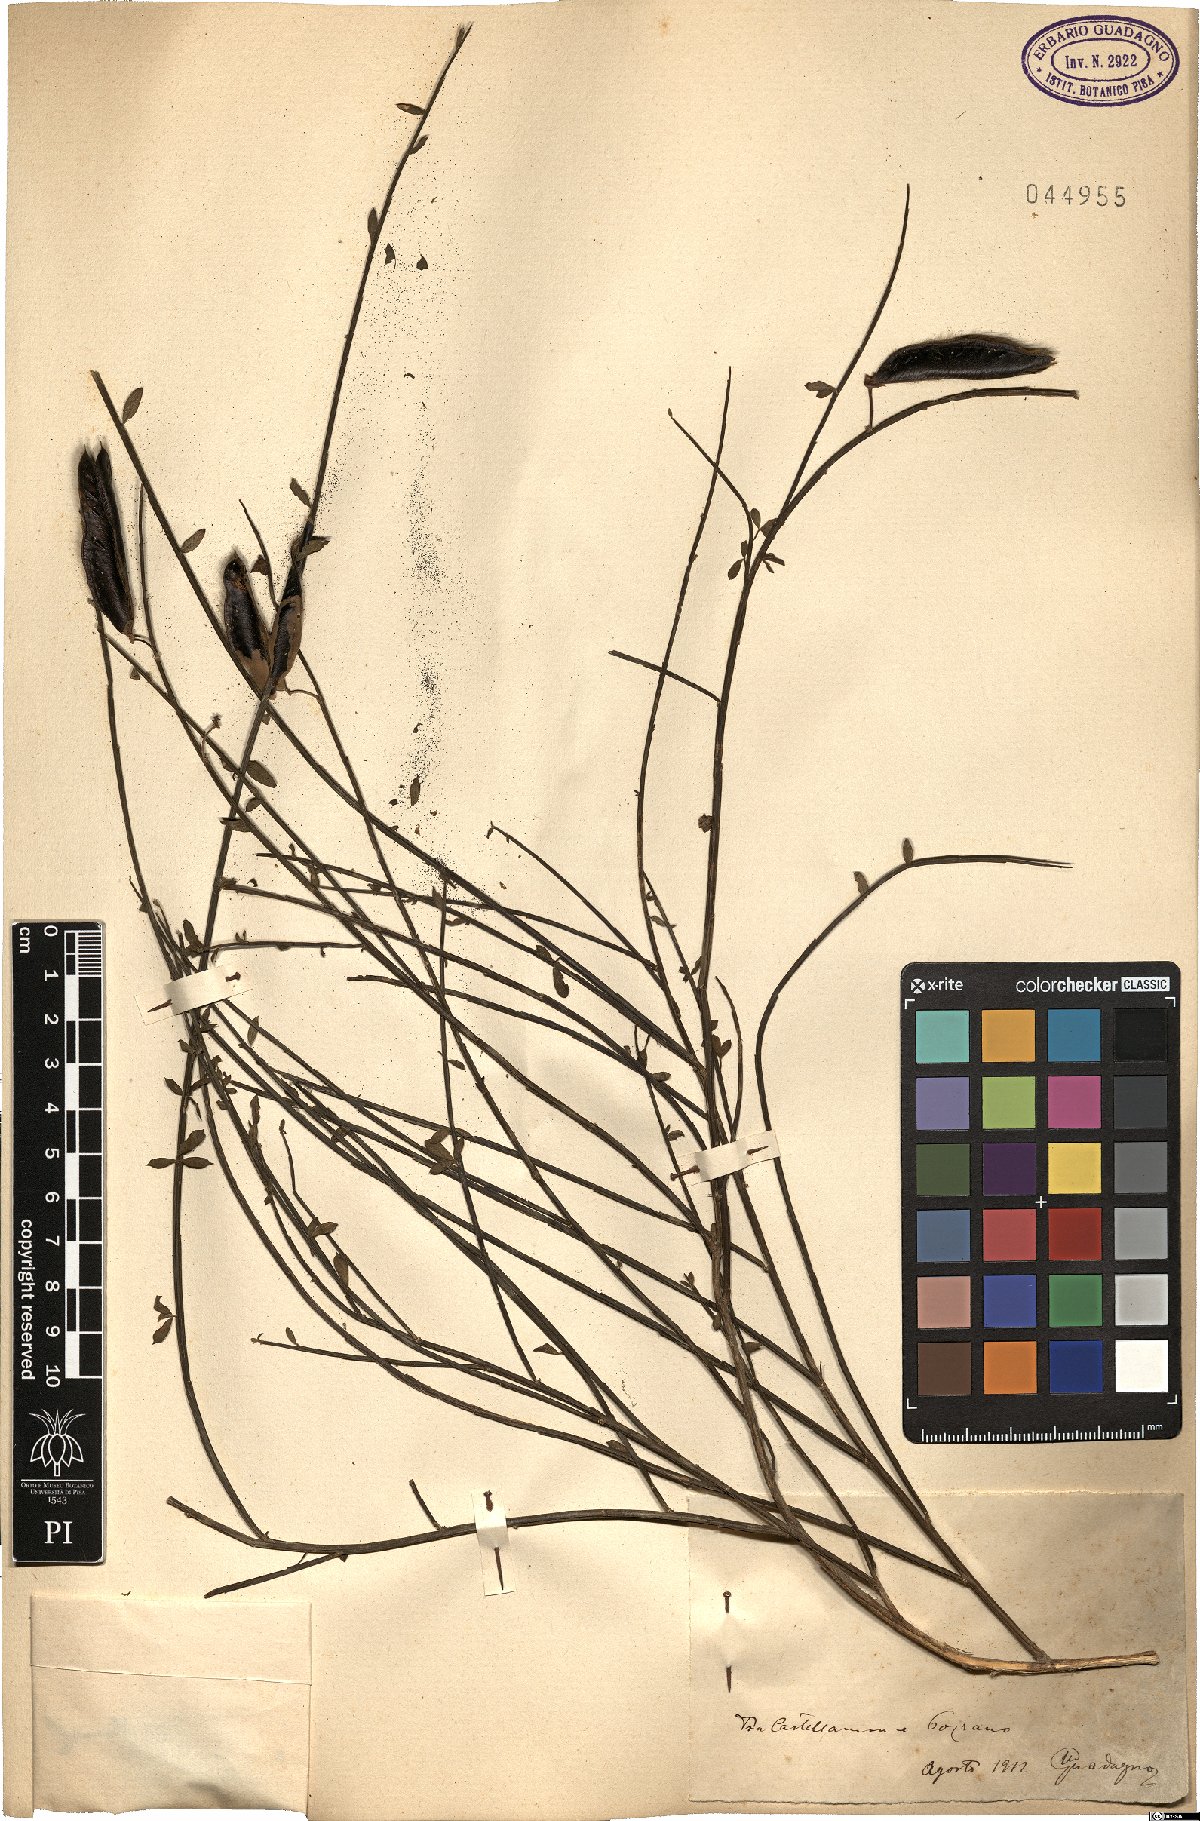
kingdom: Plantae
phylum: Tracheophyta
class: Magnoliopsida
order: Fabales
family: Fabaceae
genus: Spartium
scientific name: Spartium
